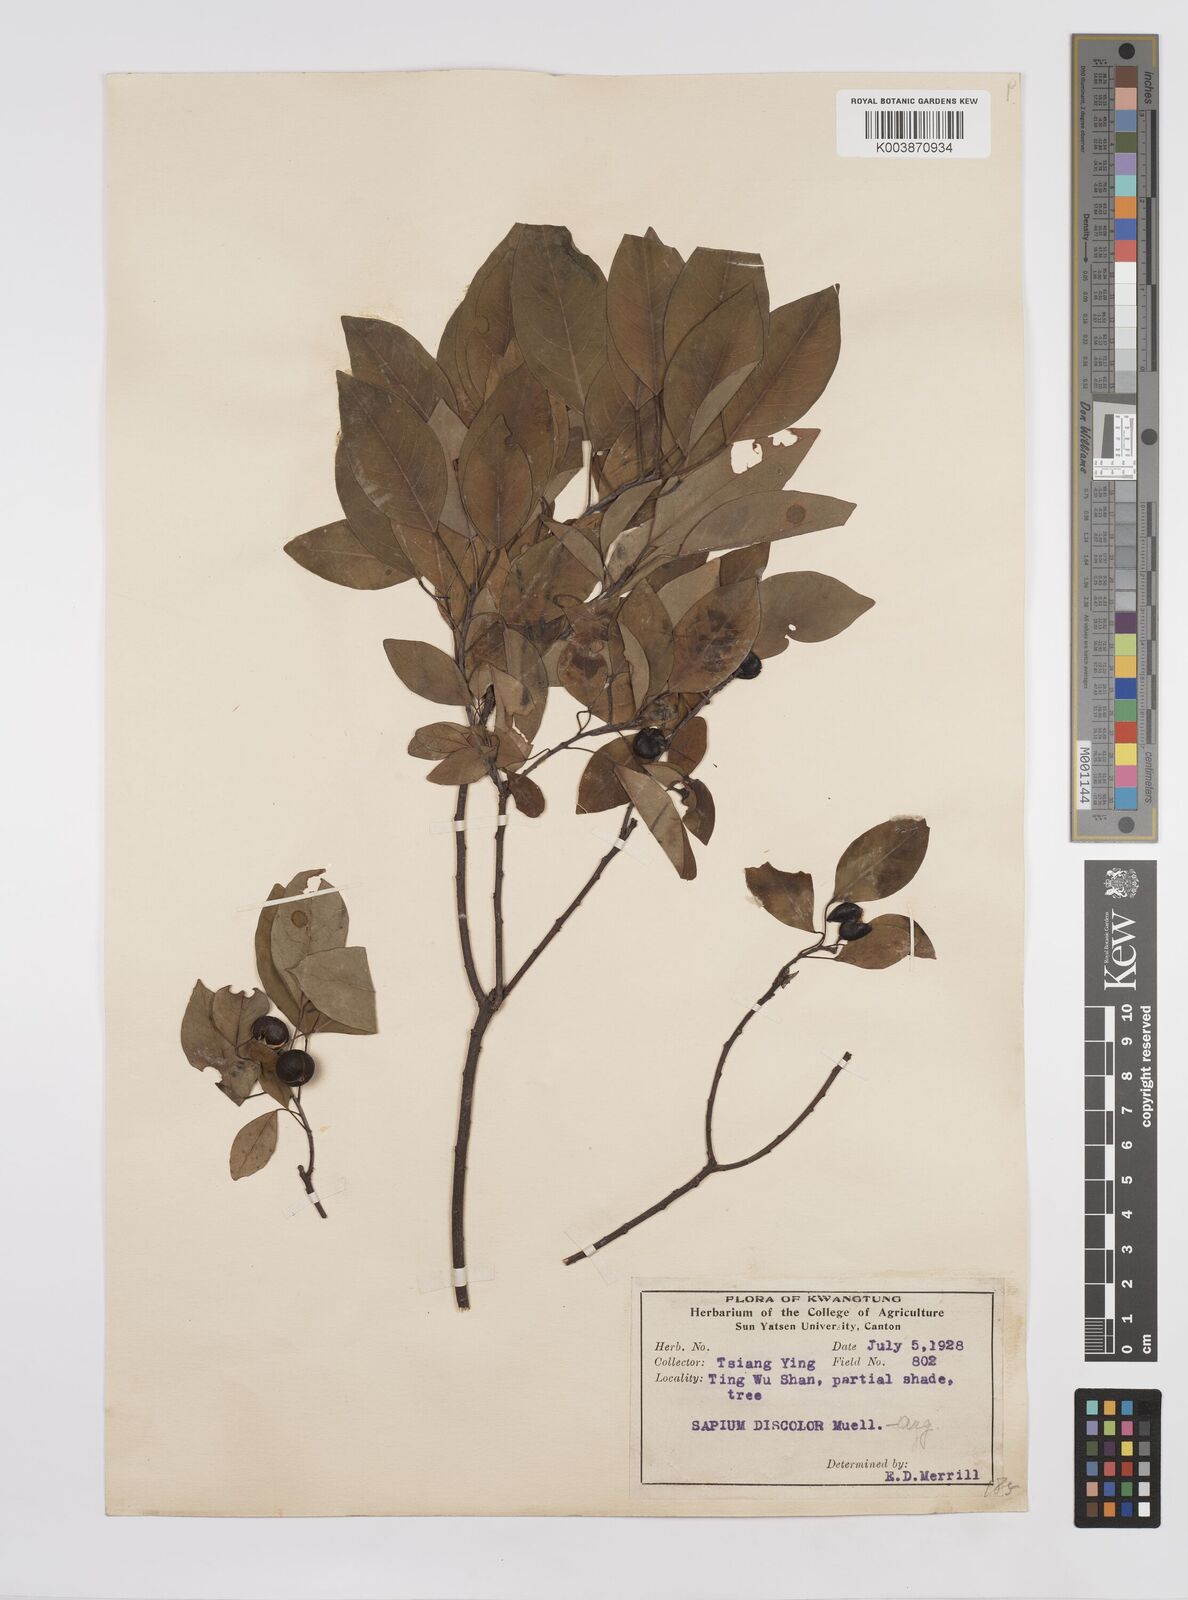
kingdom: Plantae
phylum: Tracheophyta
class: Magnoliopsida
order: Malpighiales
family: Euphorbiaceae
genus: Triadica
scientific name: Triadica cochinchinensis
